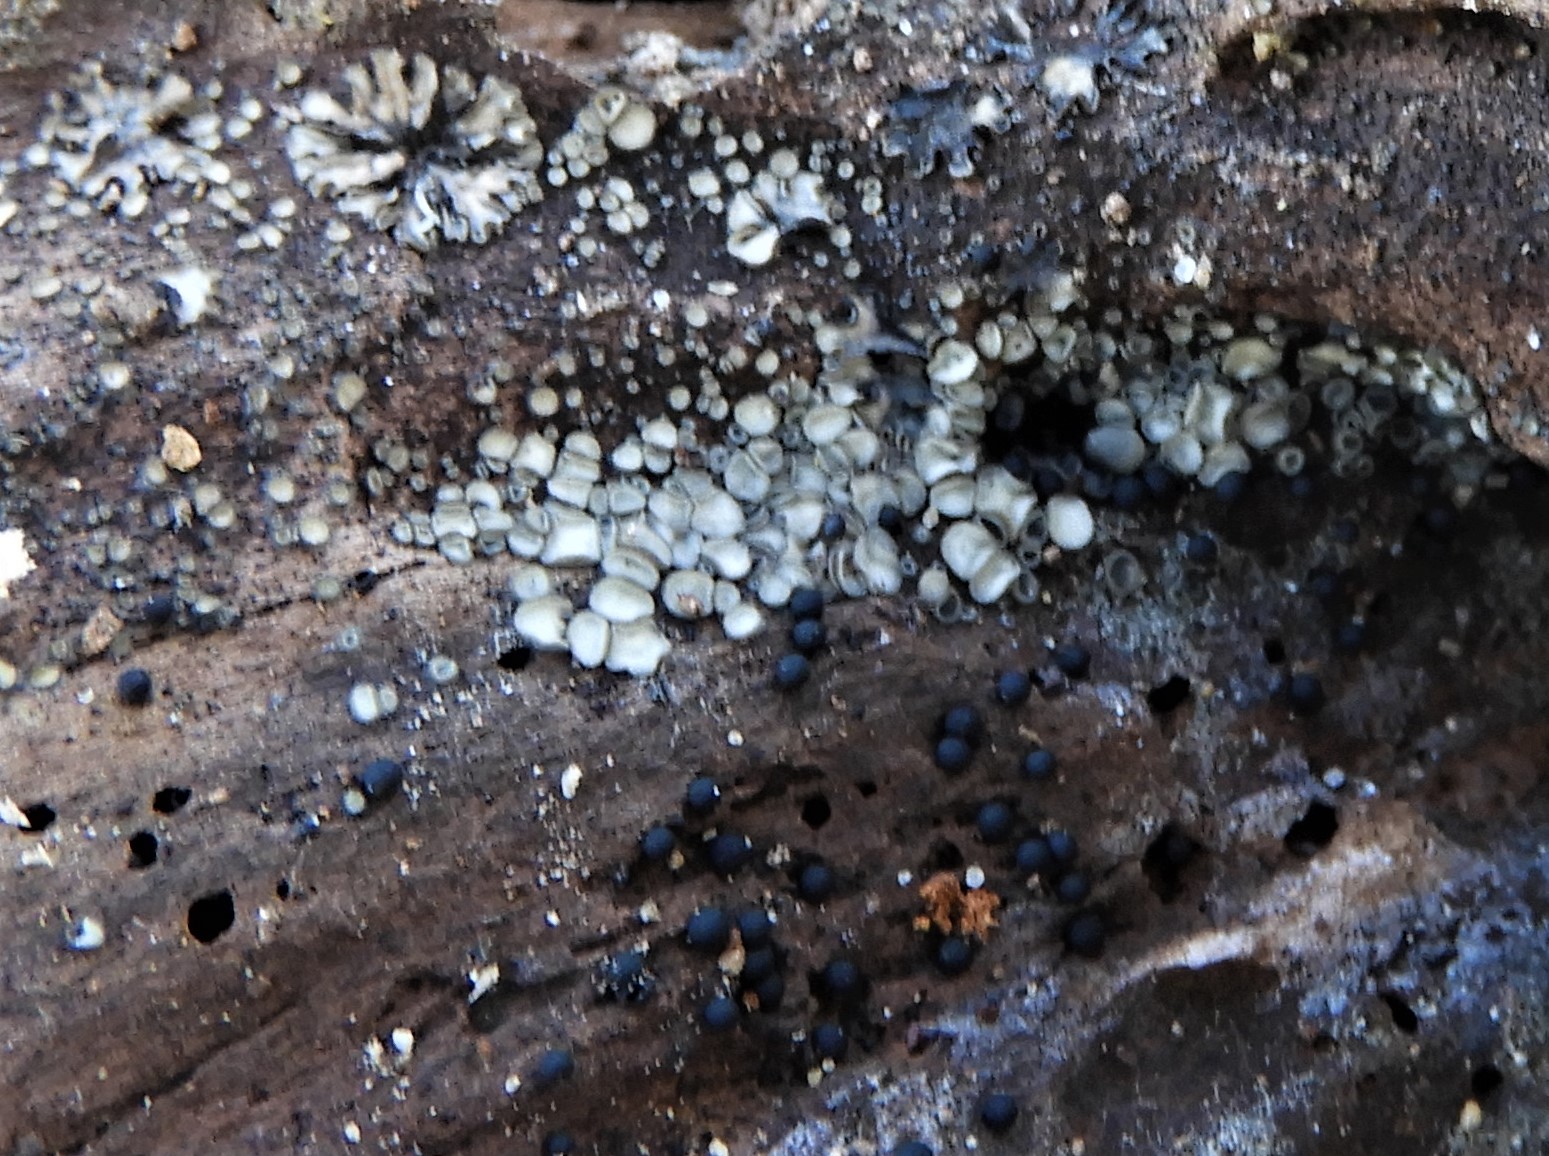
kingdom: Fungi
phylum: Ascomycota
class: Leotiomycetes
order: Helotiales
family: Mollisiaceae
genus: Mollisia
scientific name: Mollisia
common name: gråskive
